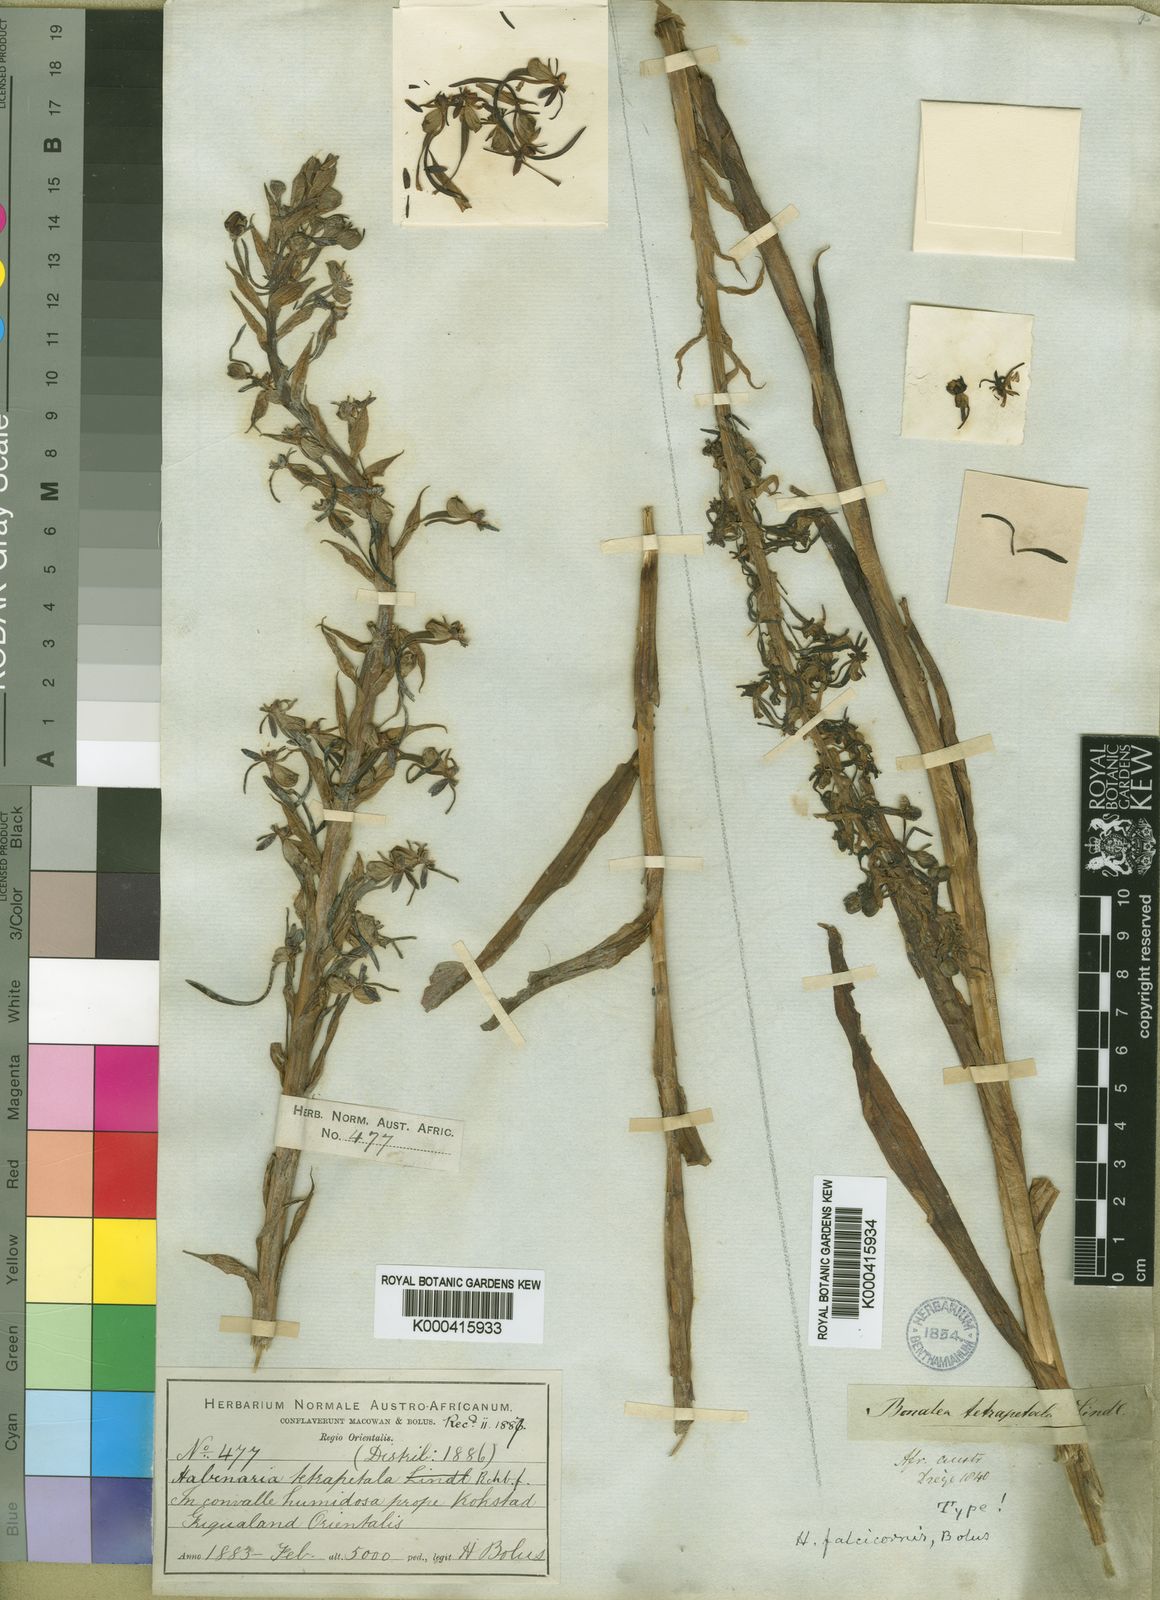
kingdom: Plantae
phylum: Tracheophyta
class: Liliopsida
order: Asparagales
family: Orchidaceae
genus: Habenaria
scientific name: Habenaria
